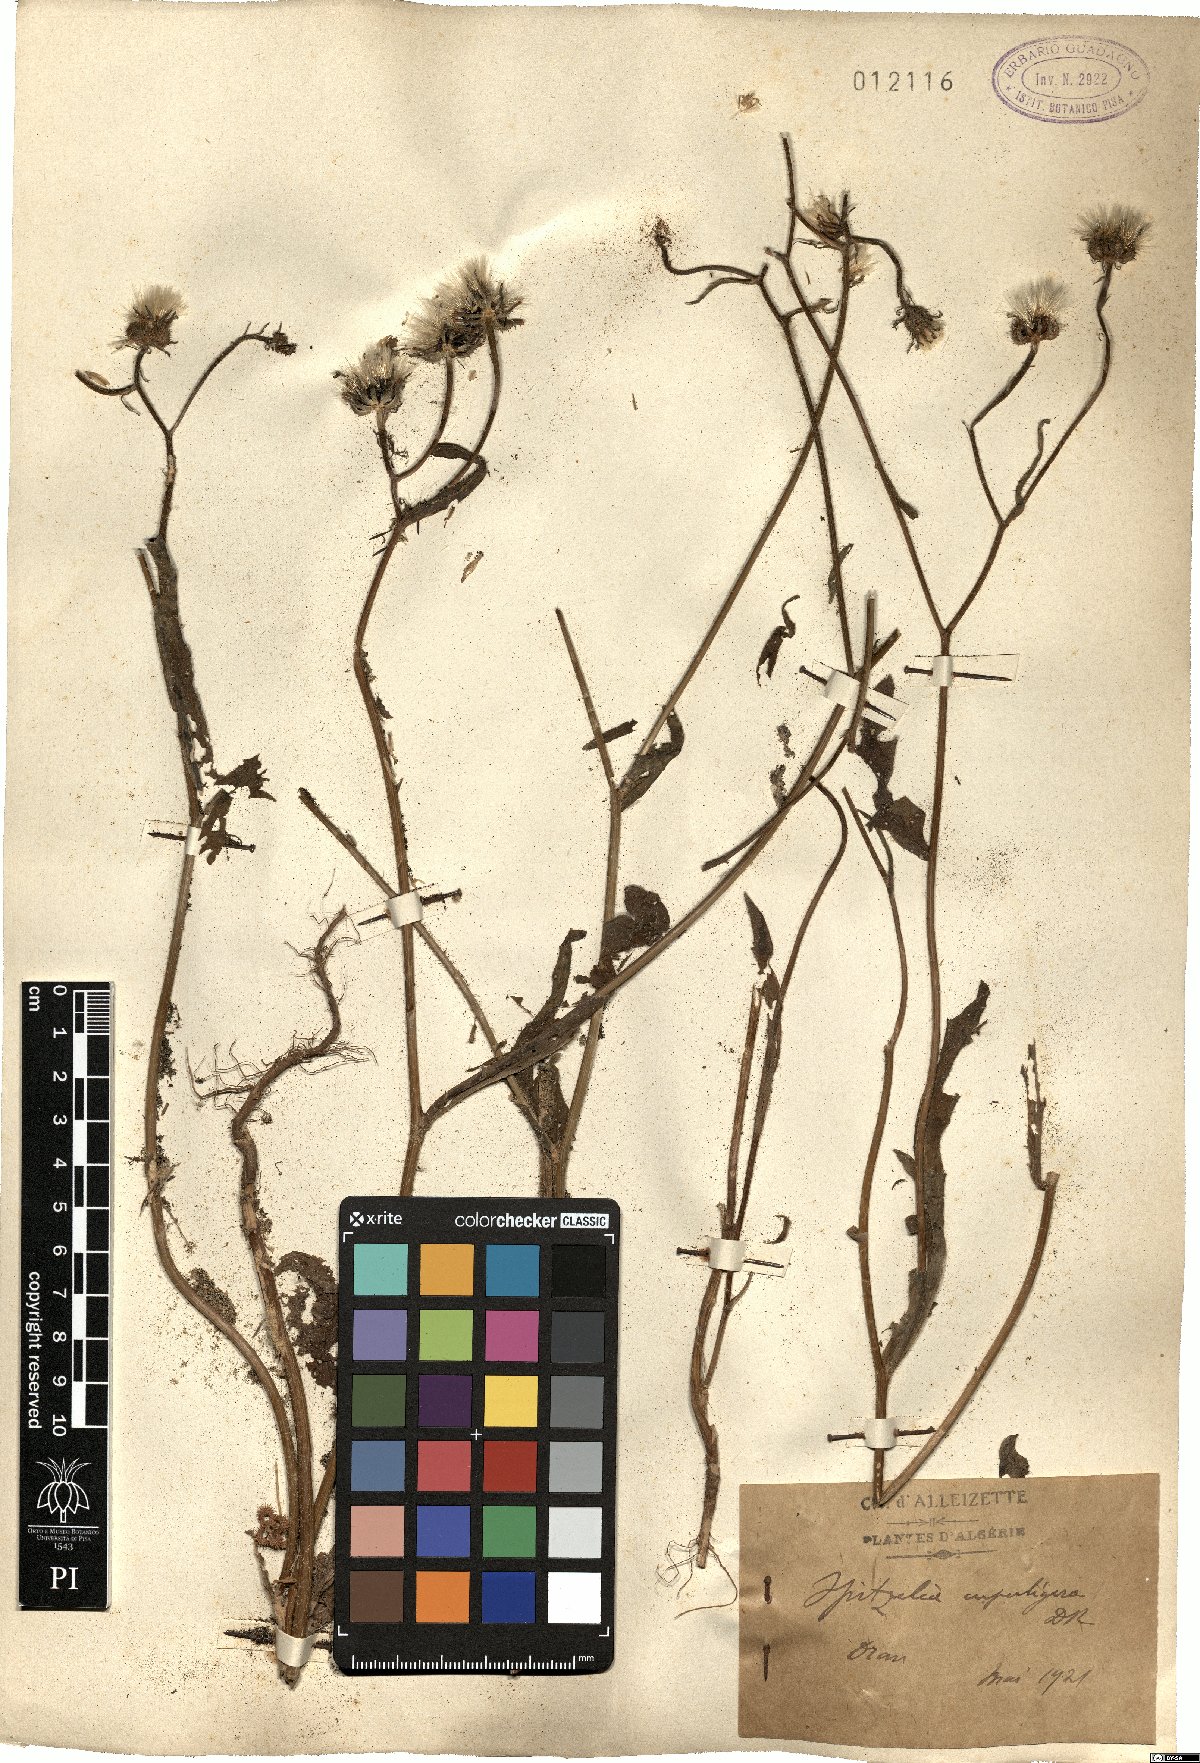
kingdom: Plantae
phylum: Tracheophyta
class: Magnoliopsida
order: Asterales
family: Asteraceae
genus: Picris
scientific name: Picris cupuligera
